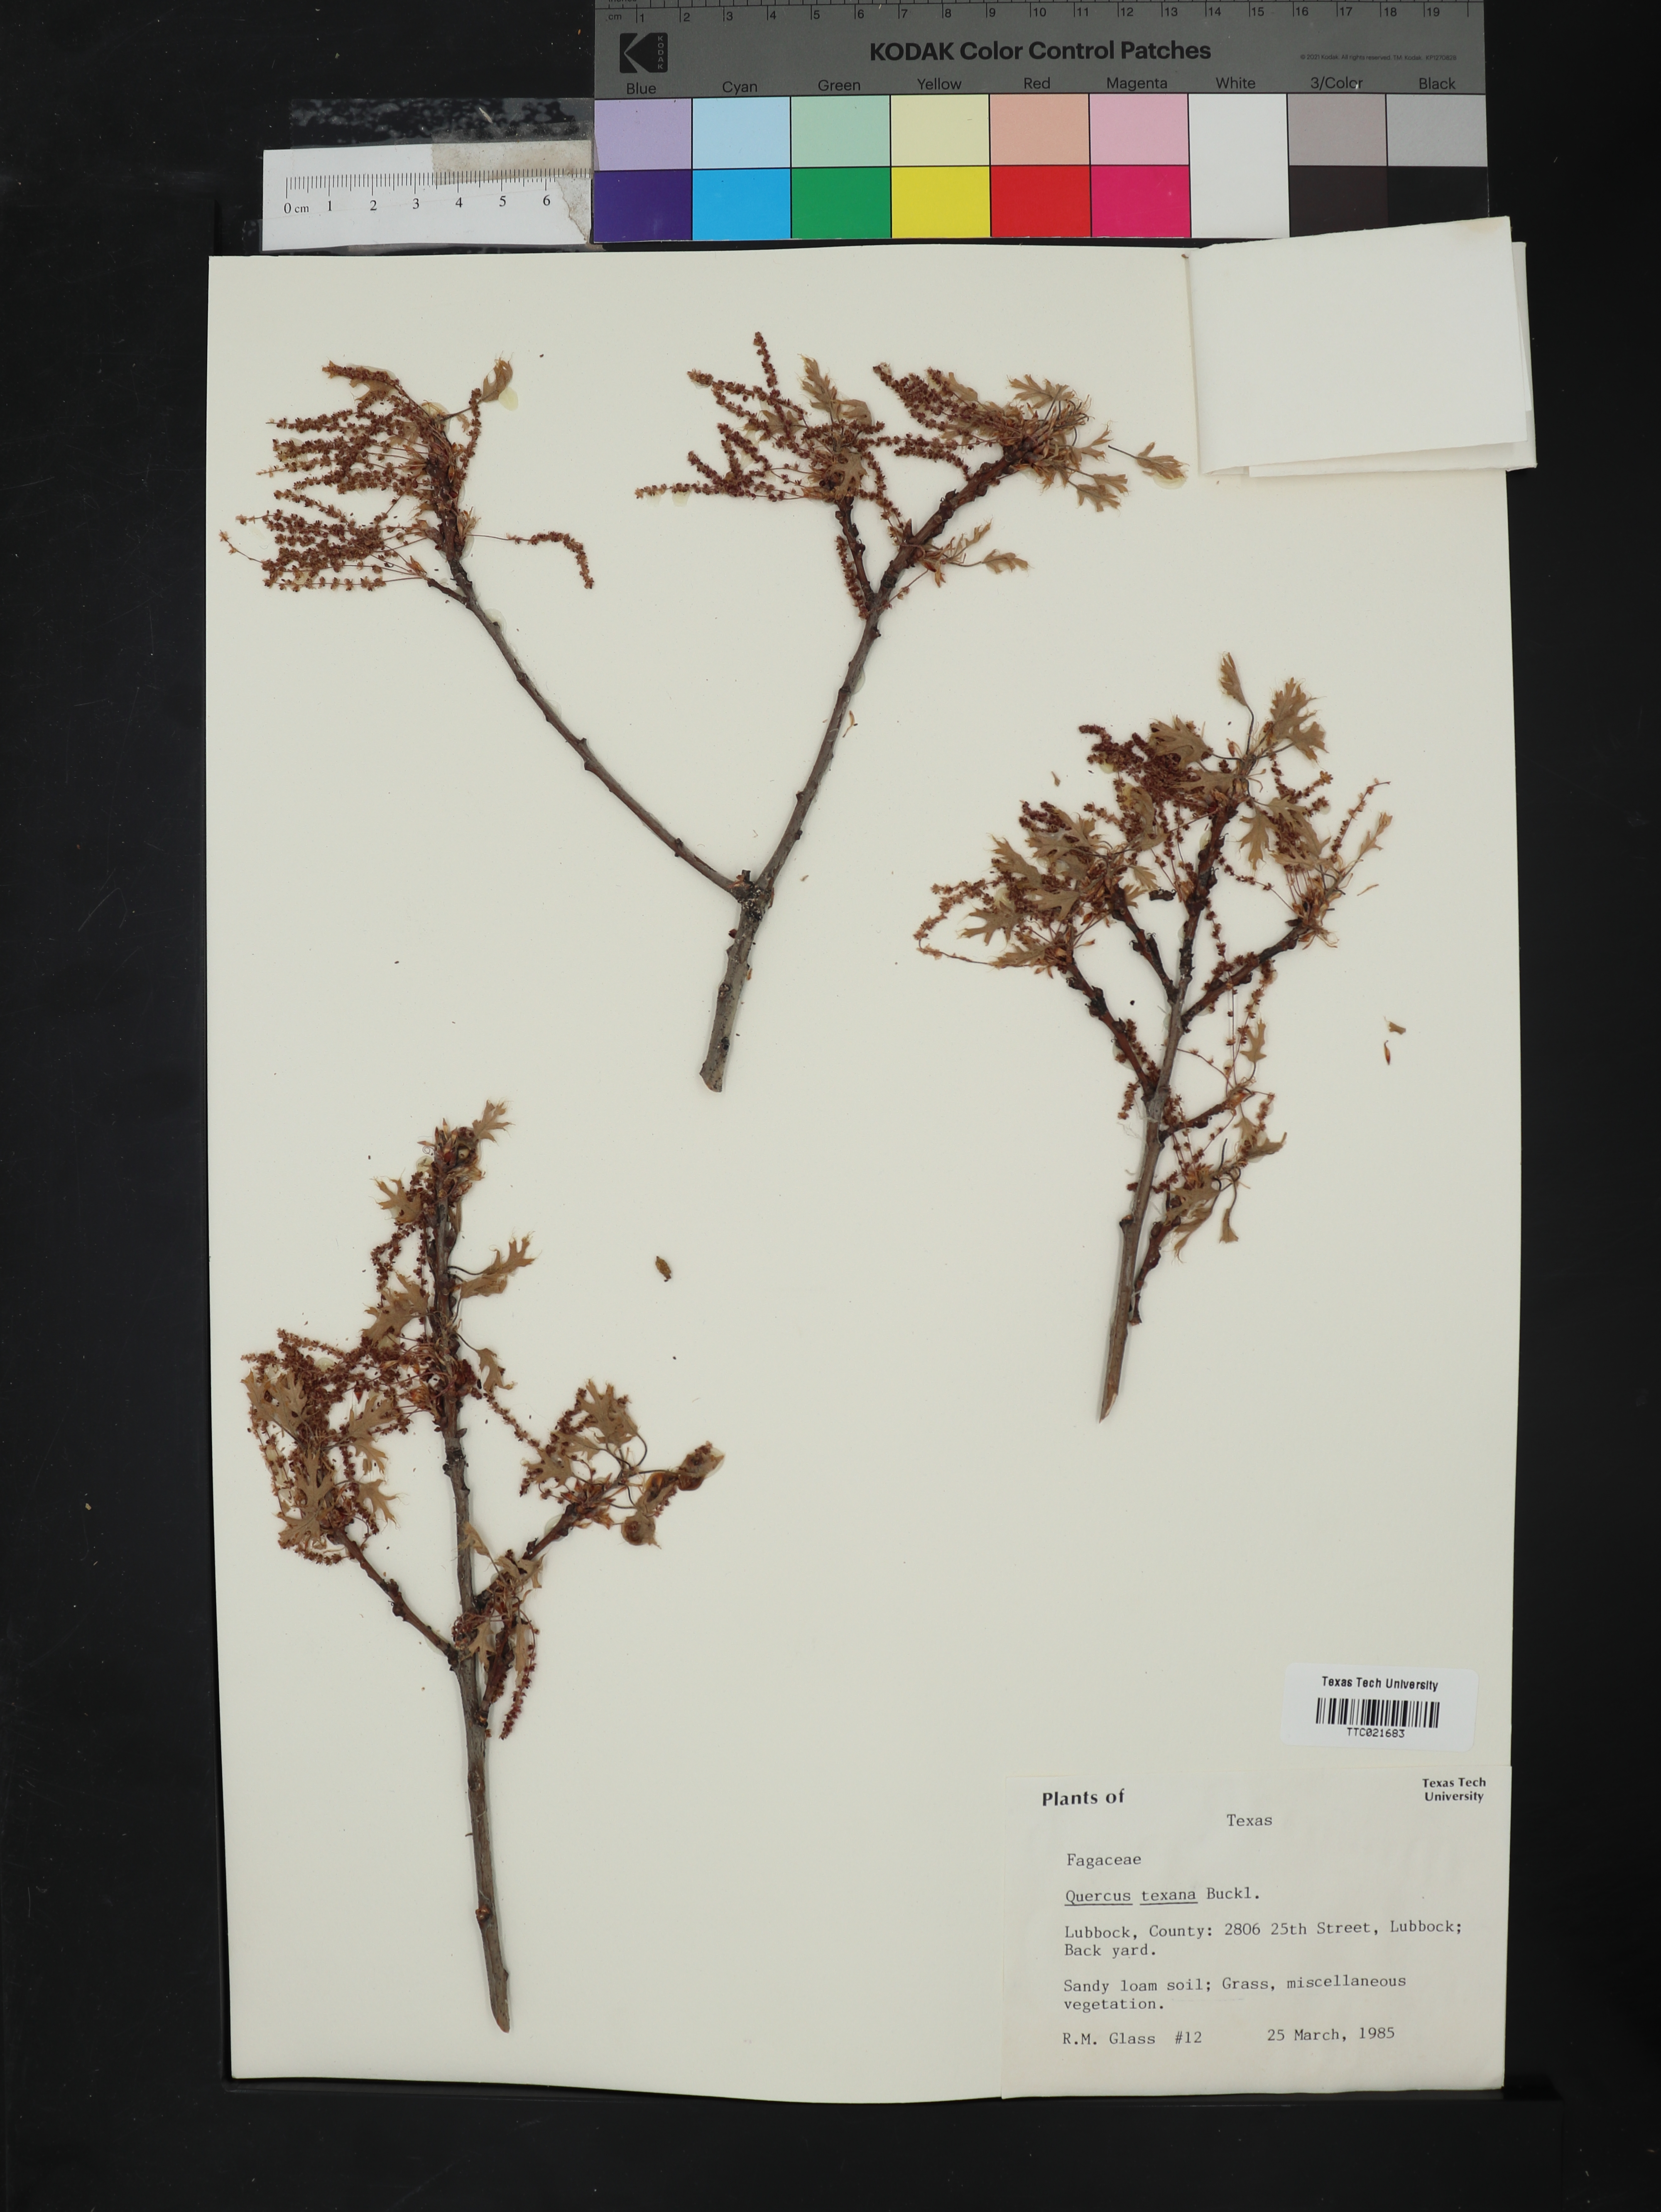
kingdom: Plantae
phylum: Tracheophyta
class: Magnoliopsida
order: Fagales
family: Fagaceae
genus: Quercus
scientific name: Quercus texana
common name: Nuttall oak
